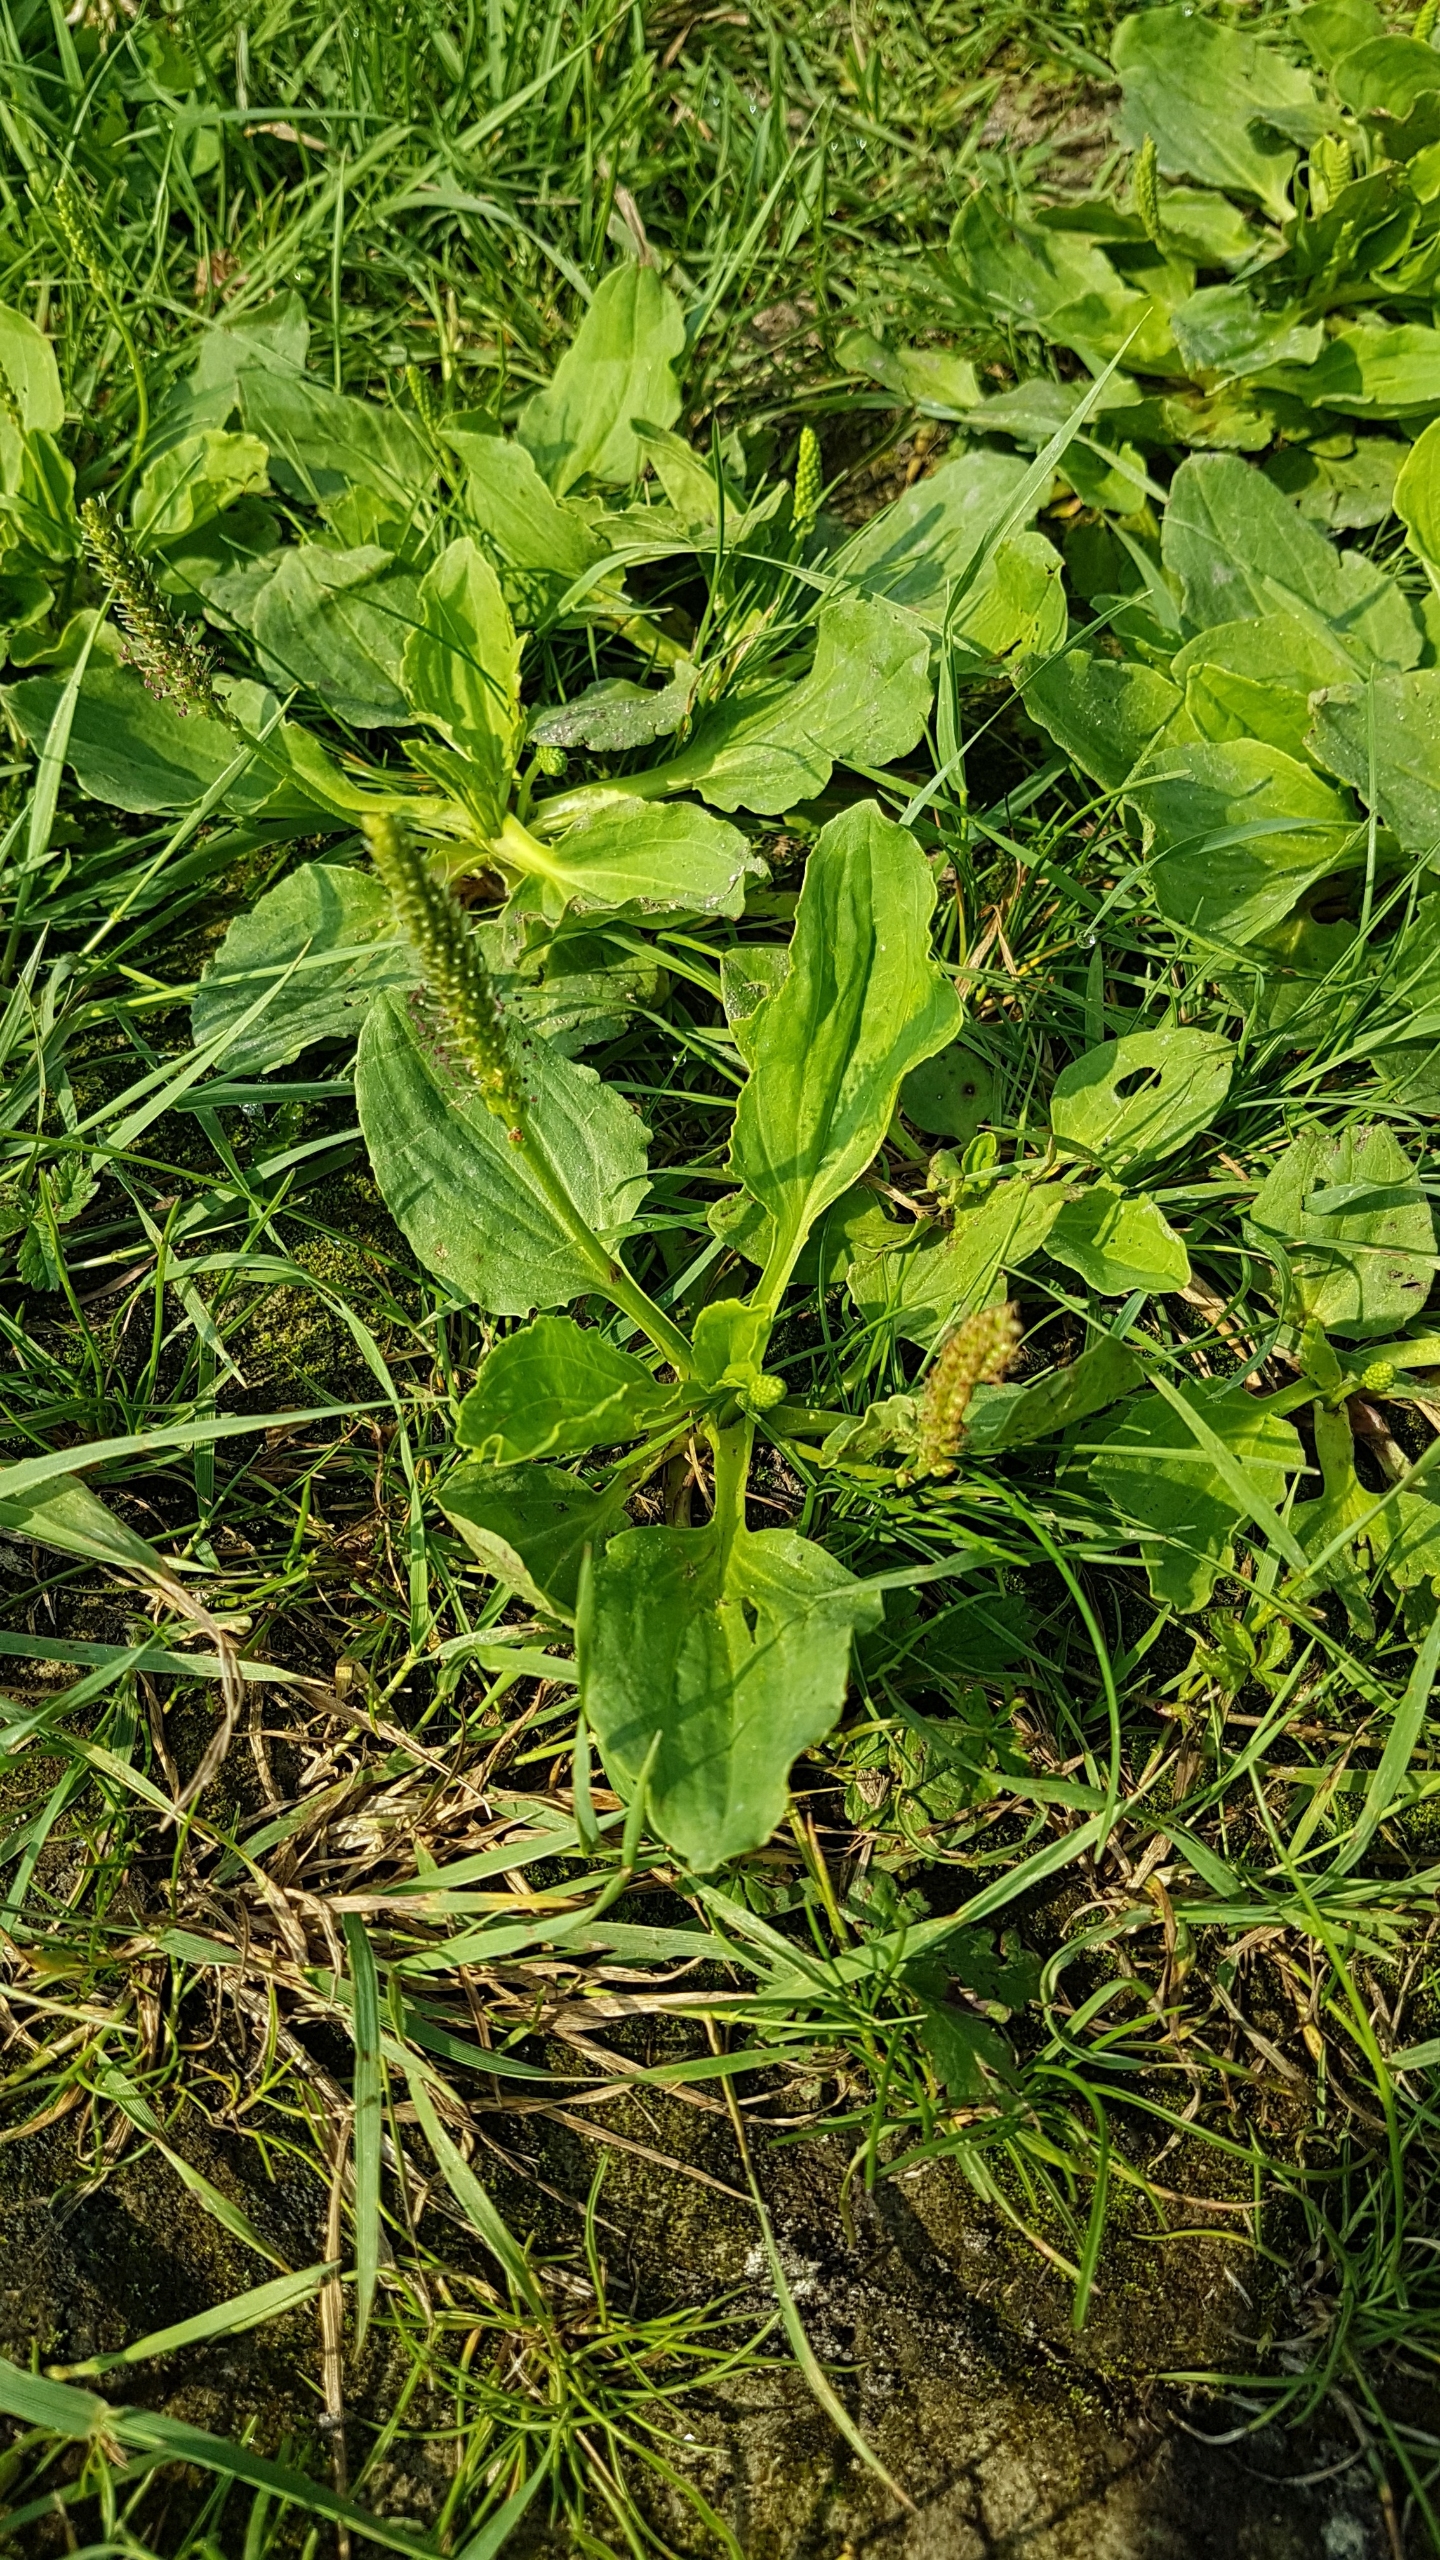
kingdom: Plantae
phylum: Tracheophyta
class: Magnoliopsida
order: Lamiales
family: Plantaginaceae
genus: Plantago
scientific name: Plantago major
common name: Glat vejbred
